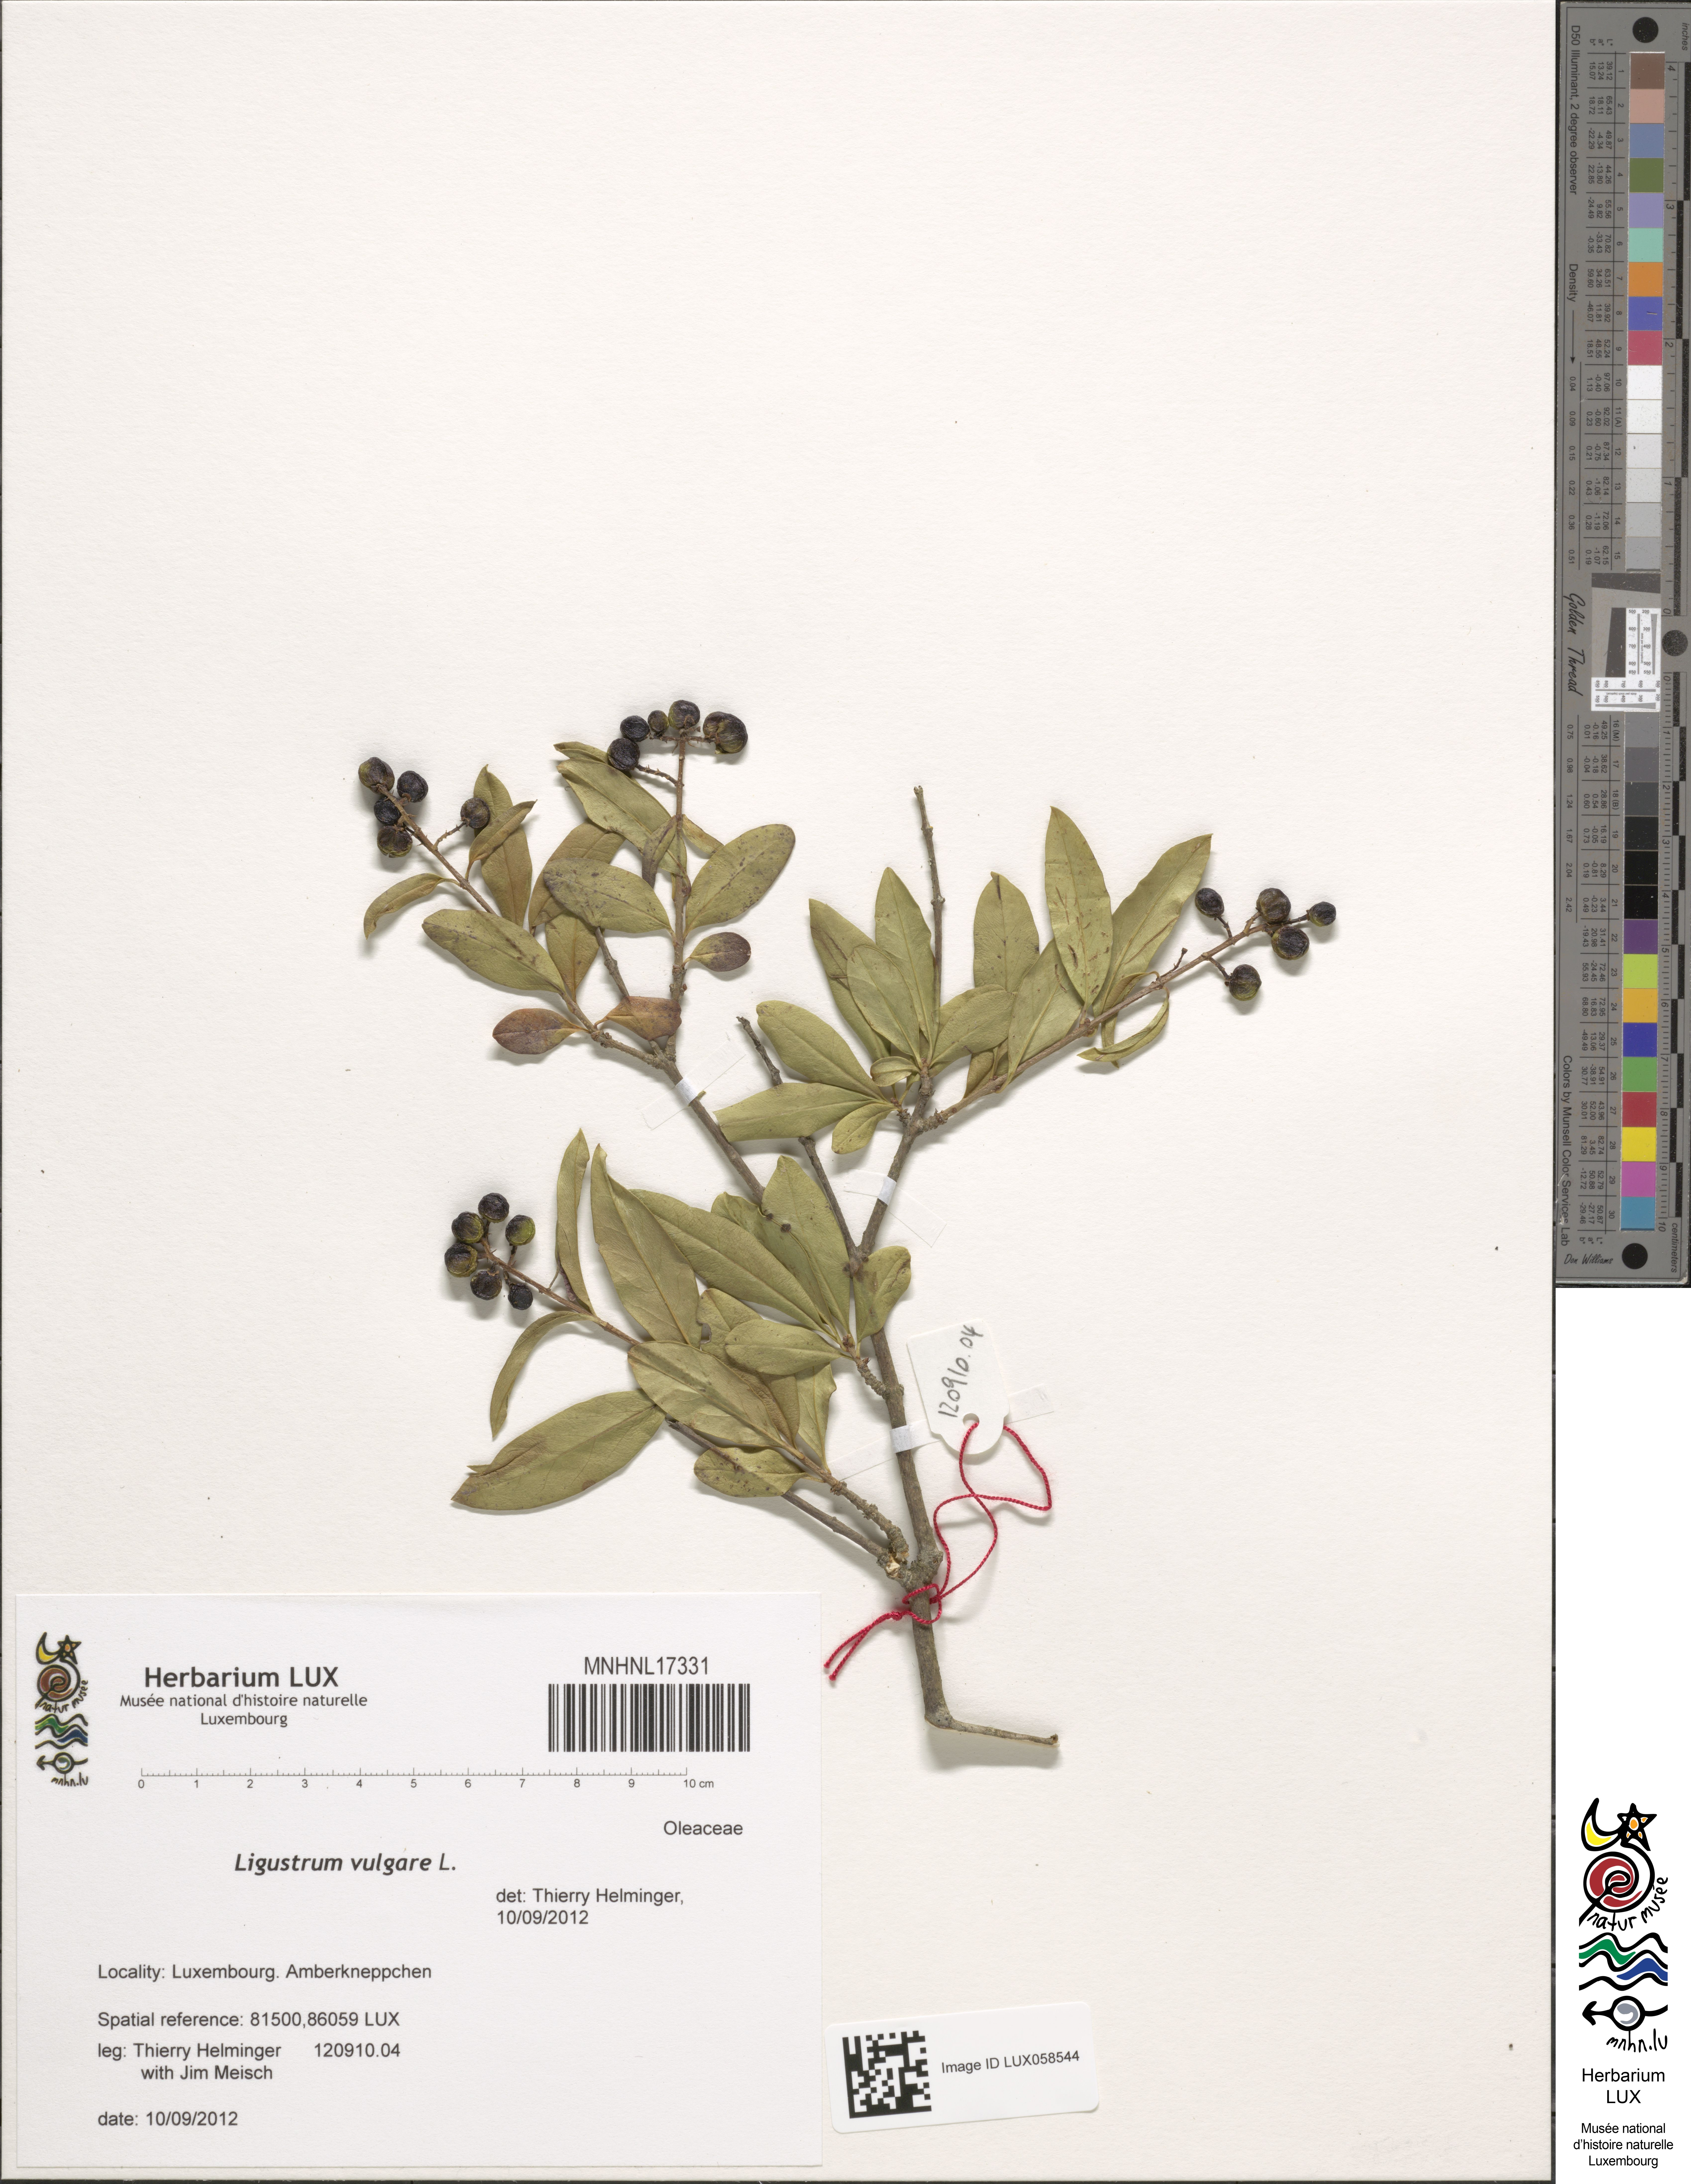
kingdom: Plantae
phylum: Tracheophyta
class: Magnoliopsida
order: Lamiales
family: Oleaceae
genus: Ligustrum
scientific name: Ligustrum vulgare
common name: Wild privet
